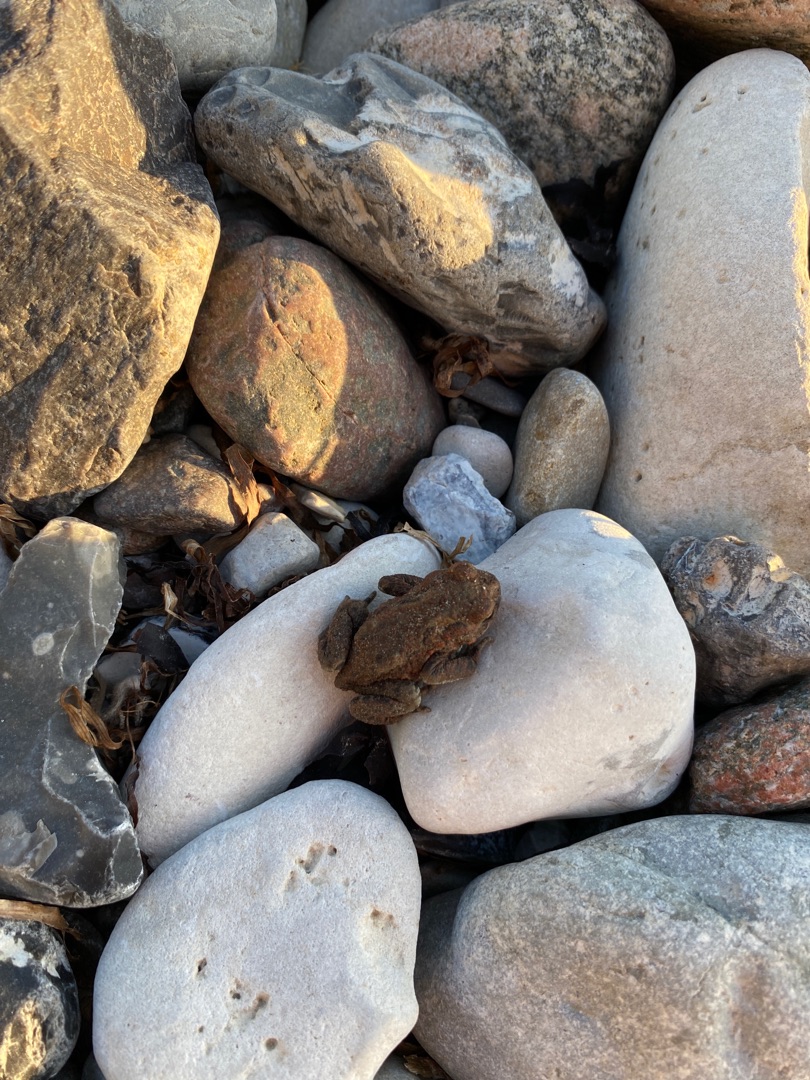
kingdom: Animalia
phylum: Chordata
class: Amphibia
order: Anura
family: Bufonidae
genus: Bufo
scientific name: Bufo bufo
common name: Skrubtudse
